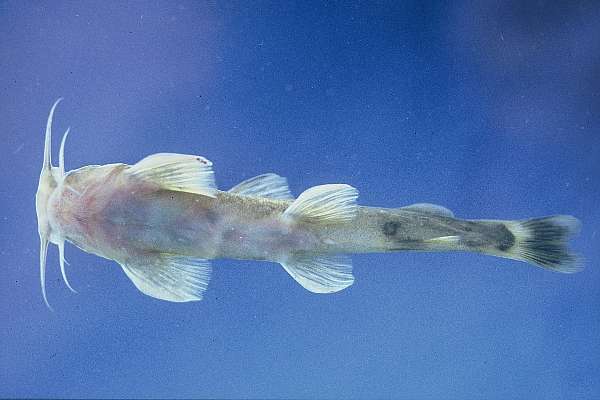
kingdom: Animalia
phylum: Chordata
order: Siluriformes
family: Amphiliidae
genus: Amphilius
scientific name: Amphilius uranoscopus
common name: Stargazer mountain catfish
